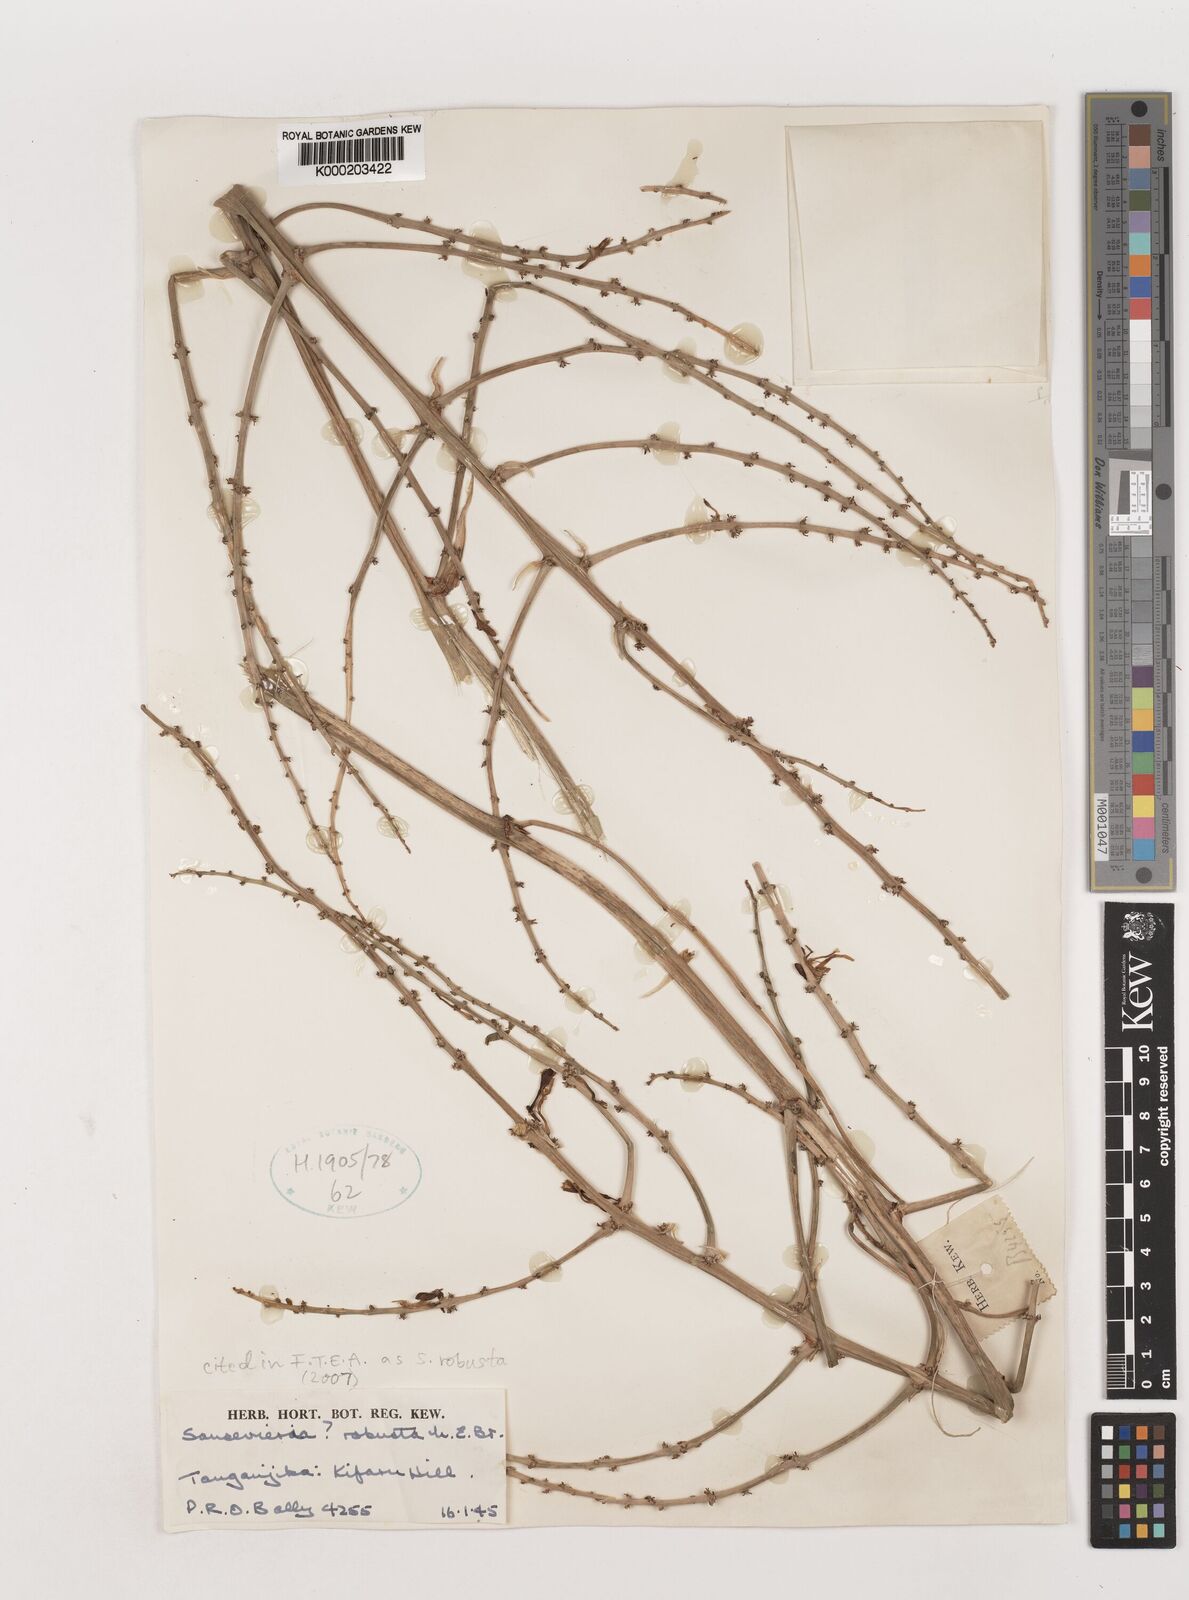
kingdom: Plantae
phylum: Tracheophyta
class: Liliopsida
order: Asparagales
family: Asparagaceae
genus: Dracaena
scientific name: Dracaena perrotii
